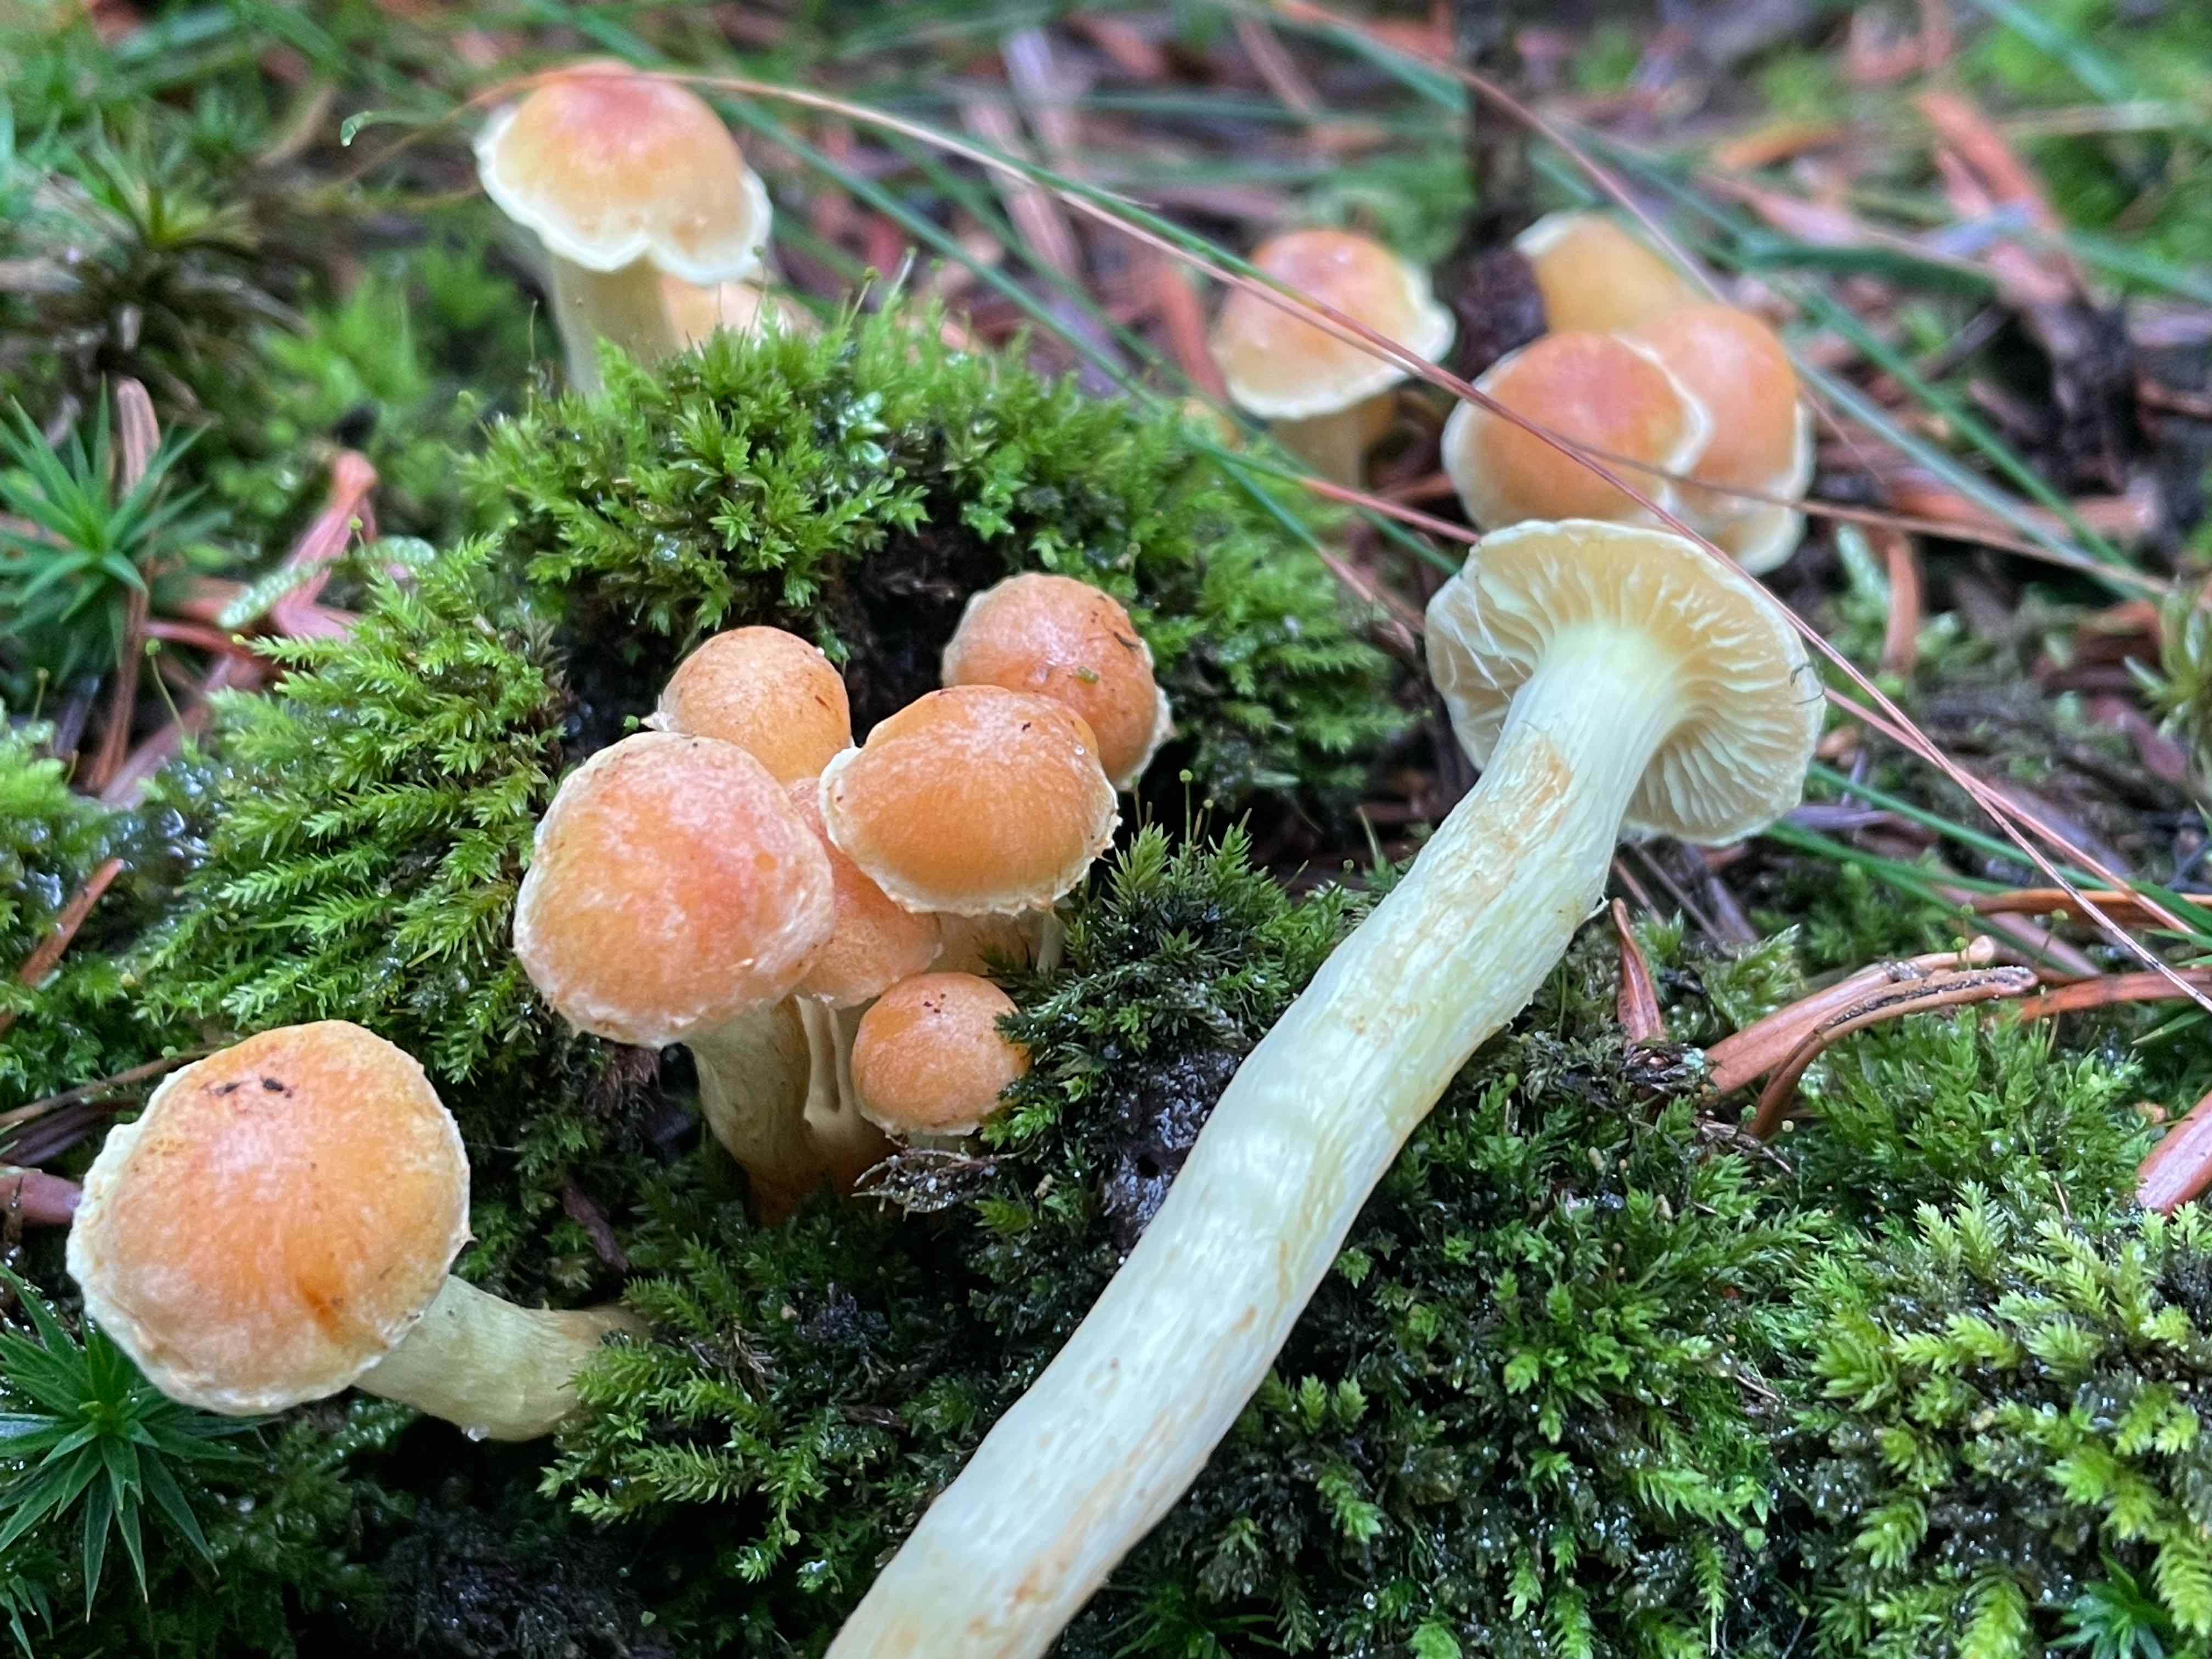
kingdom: Fungi
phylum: Basidiomycota
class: Agaricomycetes
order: Agaricales
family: Strophariaceae
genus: Hypholoma
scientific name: Hypholoma fasciculare
